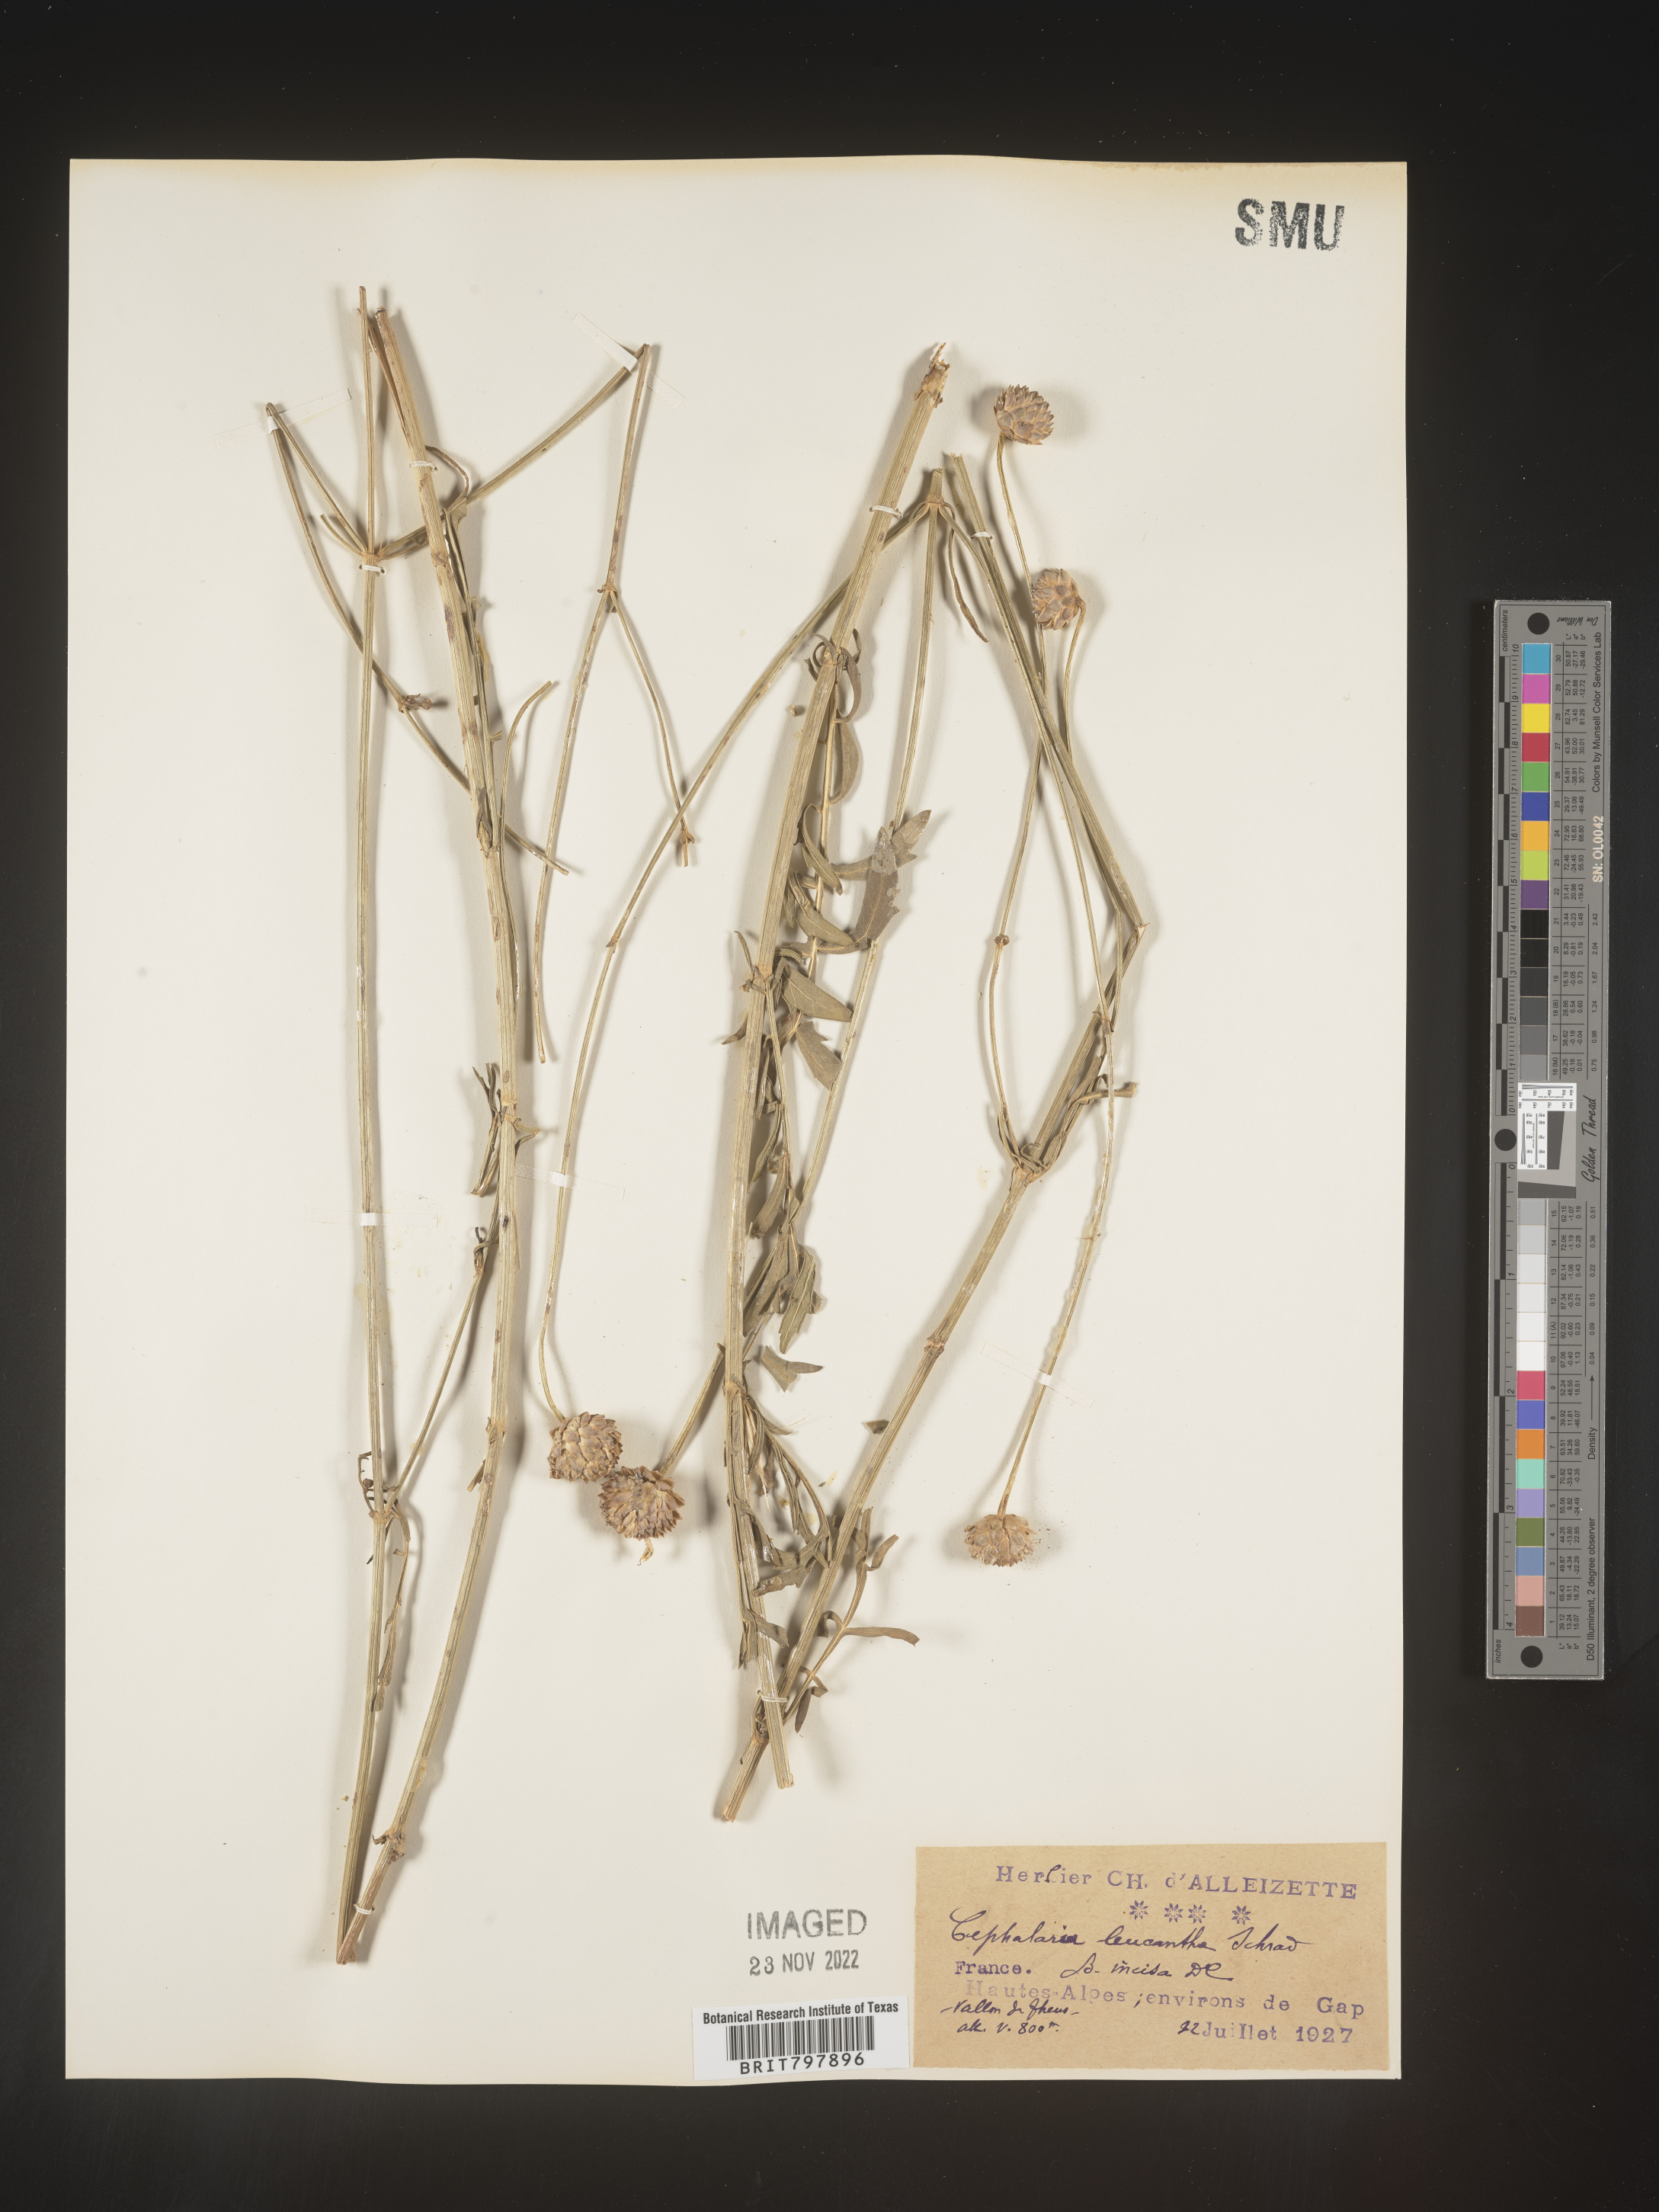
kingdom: Plantae
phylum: Tracheophyta
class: Magnoliopsida
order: Dipsacales
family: Caprifoliaceae
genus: Cephalaria
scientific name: Cephalaria
